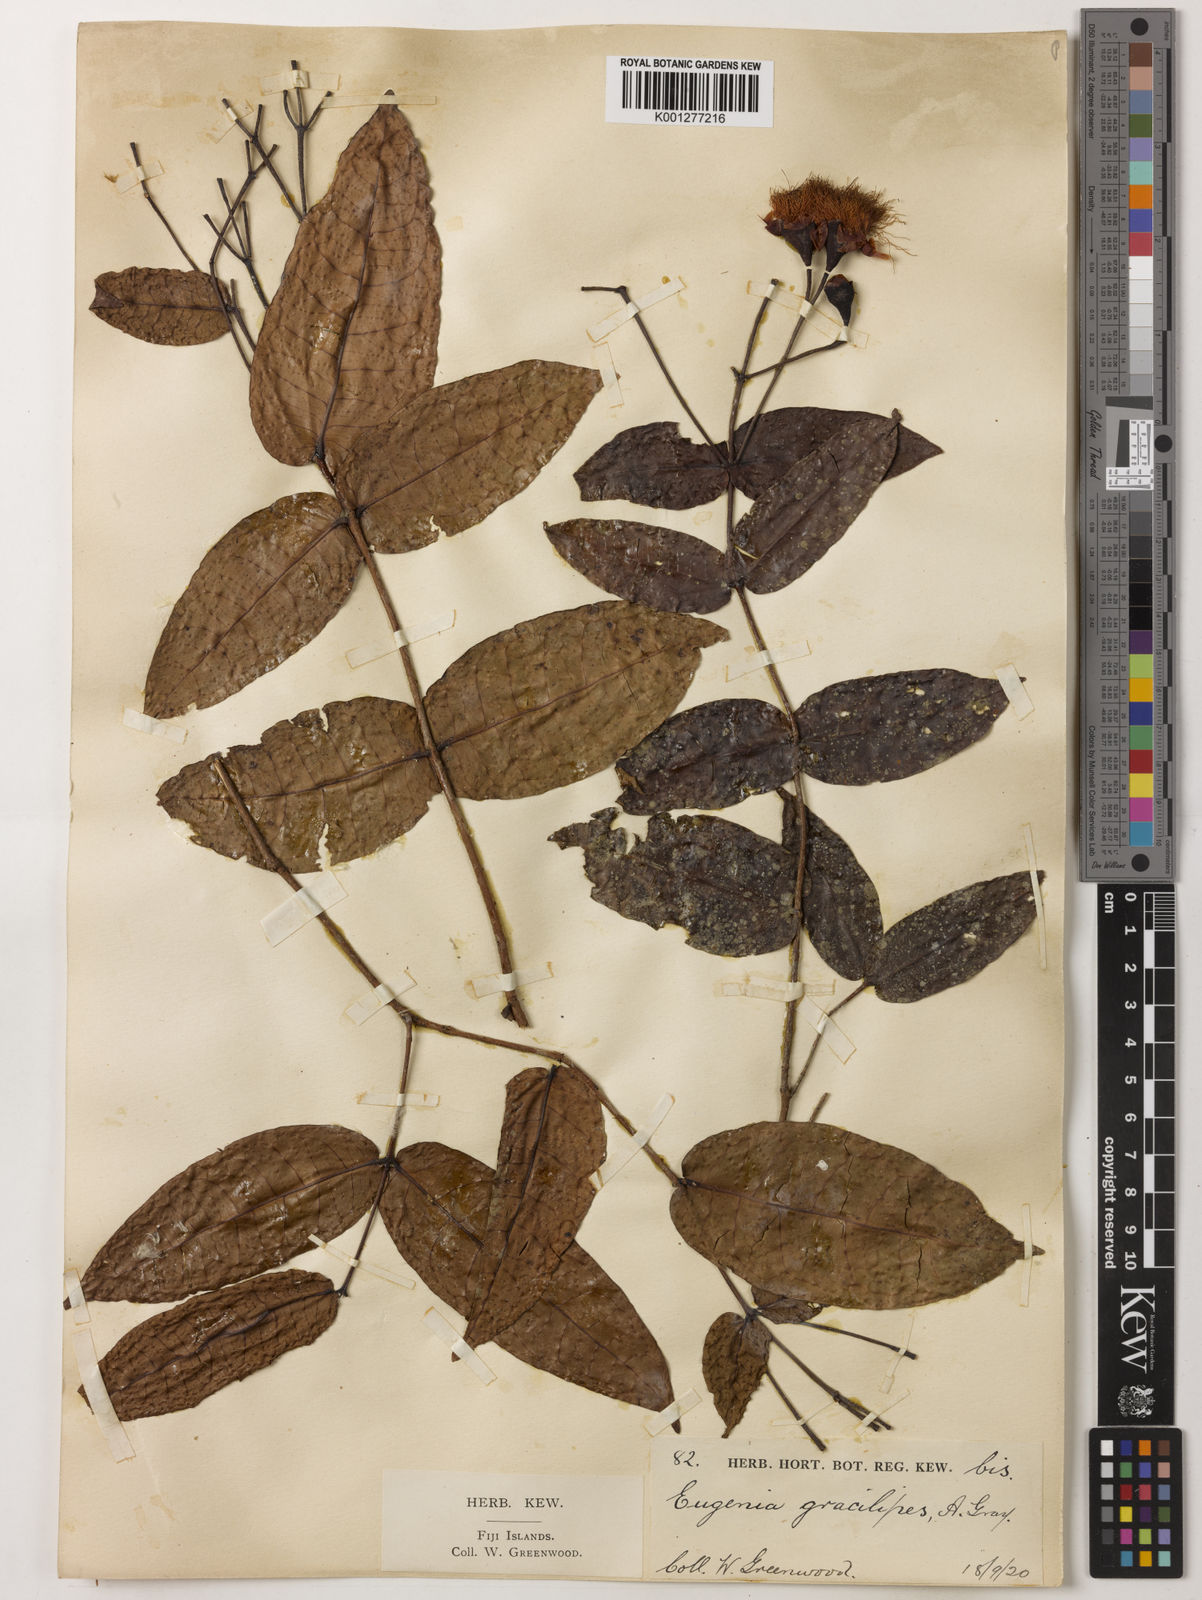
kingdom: Plantae
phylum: Tracheophyta
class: Magnoliopsida
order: Myrtales
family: Myrtaceae
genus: Syzygium
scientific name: Syzygium gracilipes
